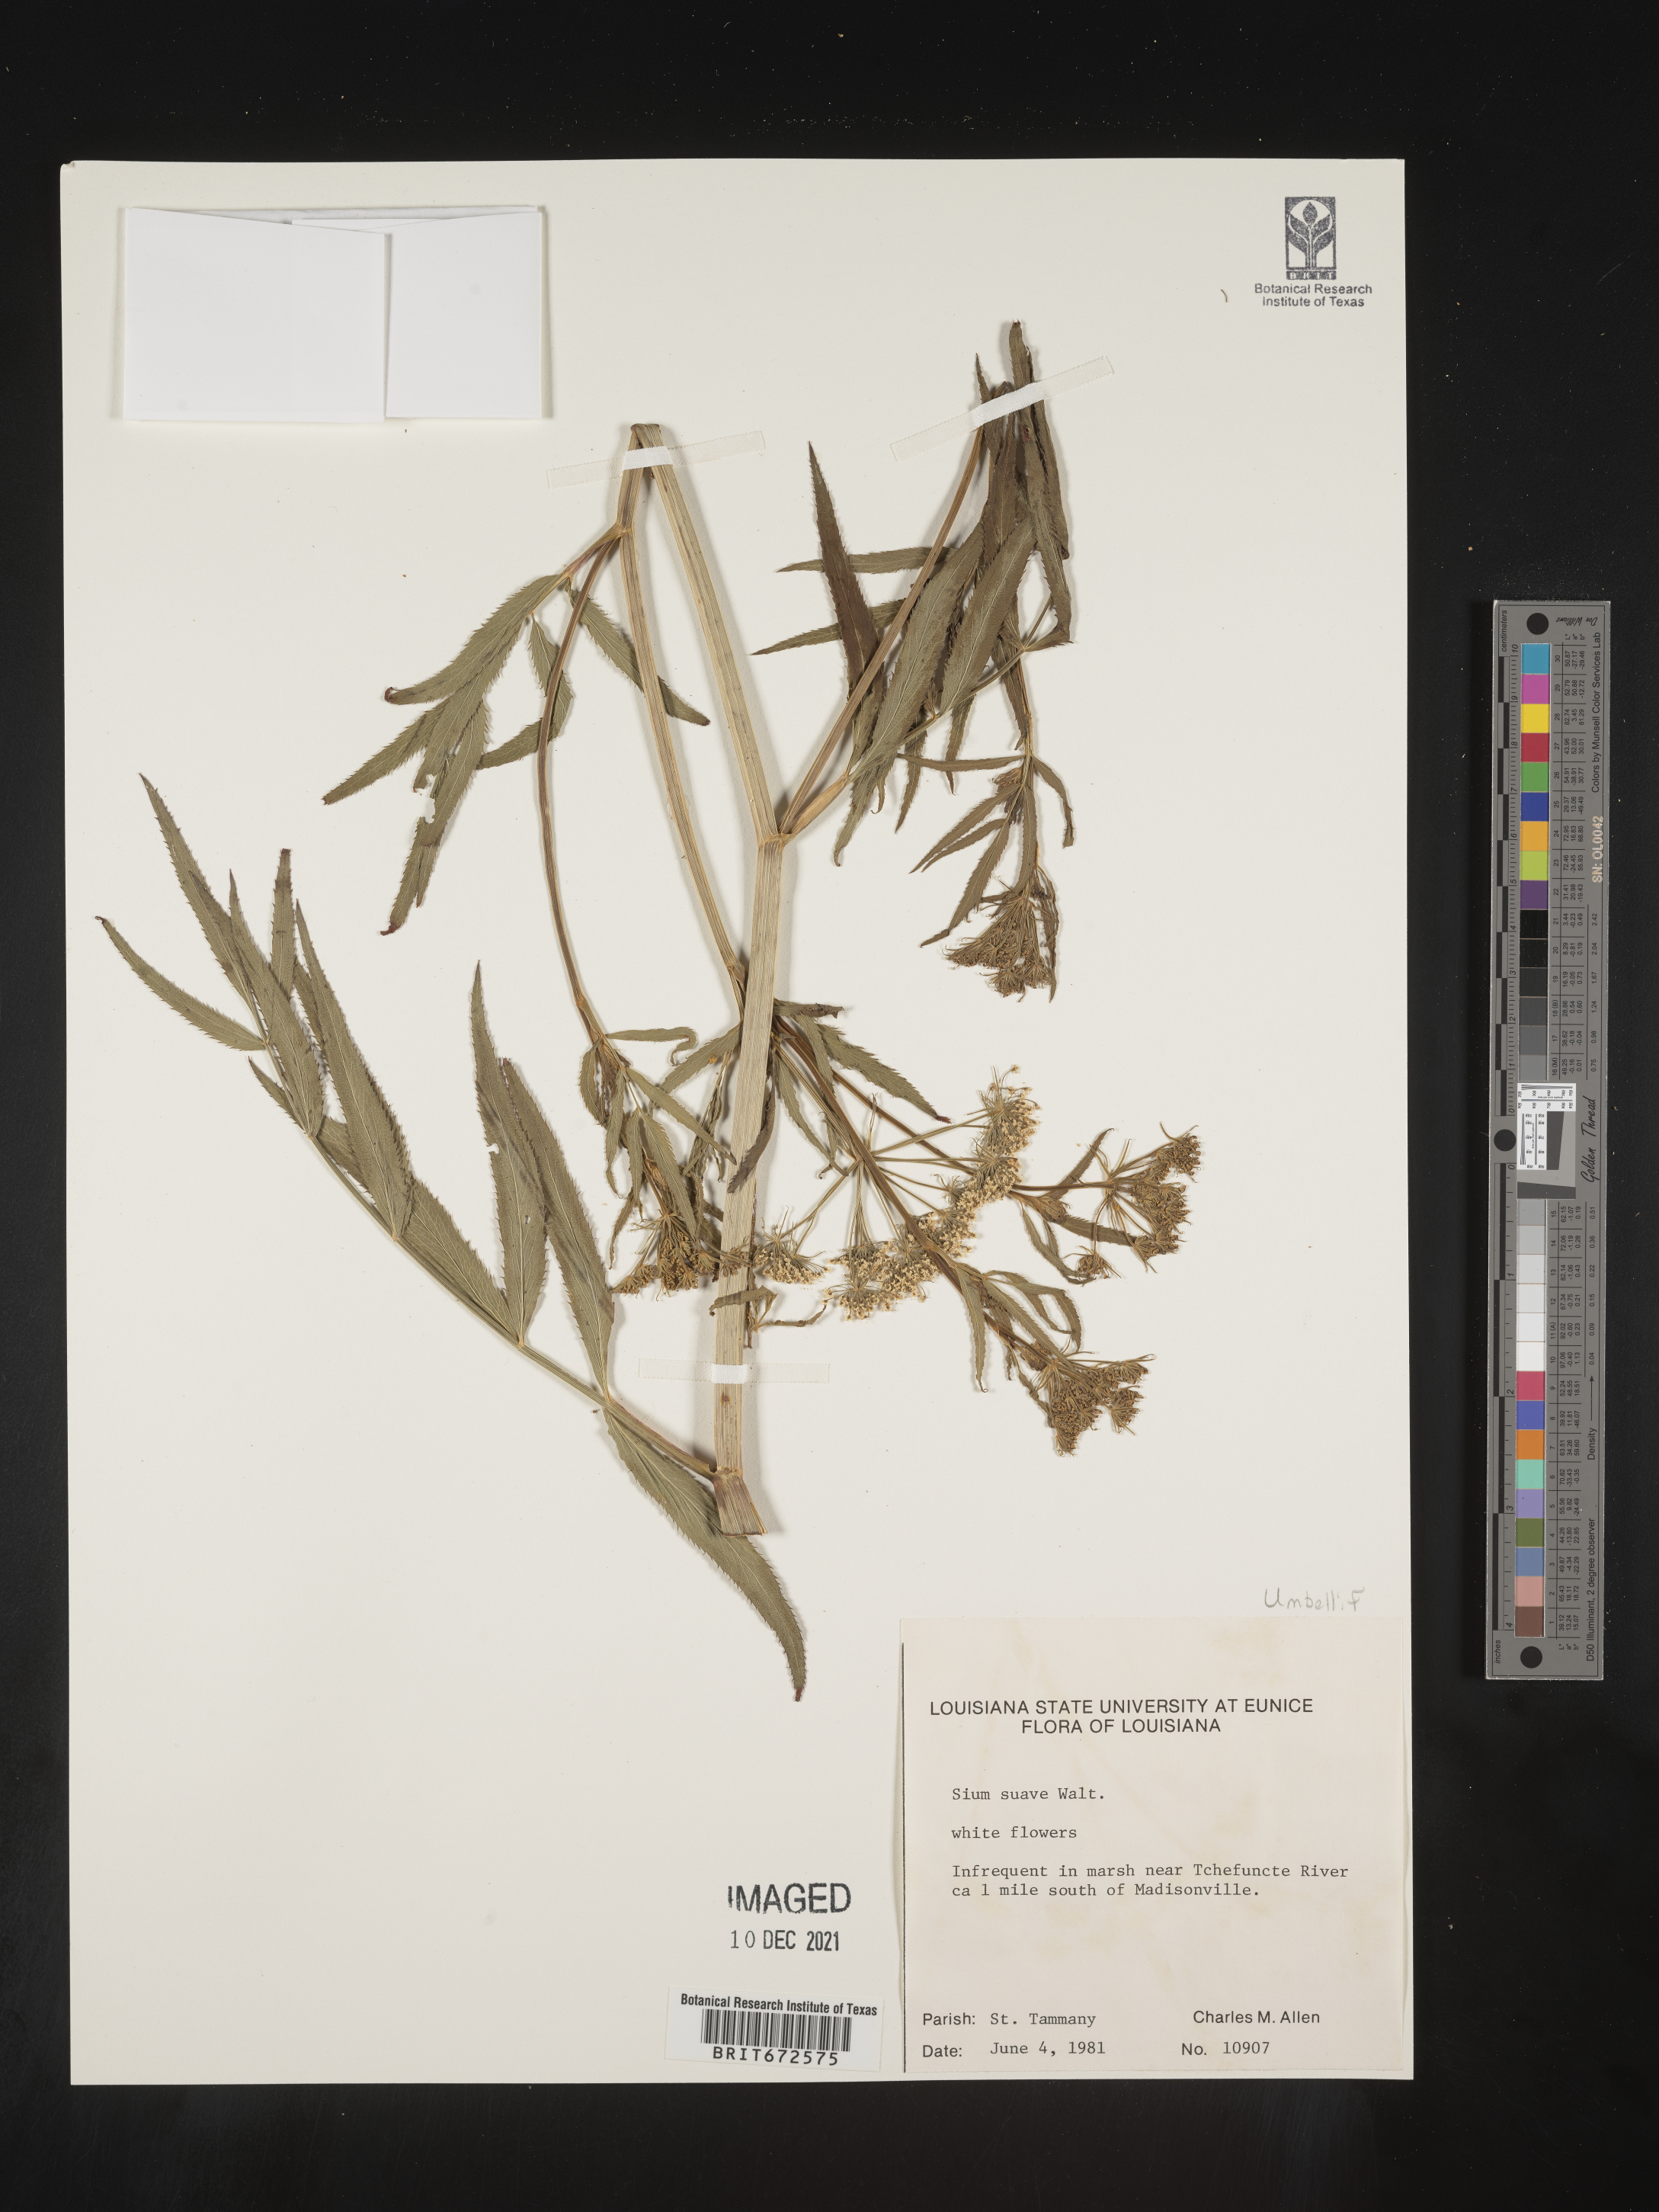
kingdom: Plantae
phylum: Tracheophyta
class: Magnoliopsida
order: Apiales
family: Apiaceae
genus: Sium
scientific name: Sium suave
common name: Hemlock water-parsnip
